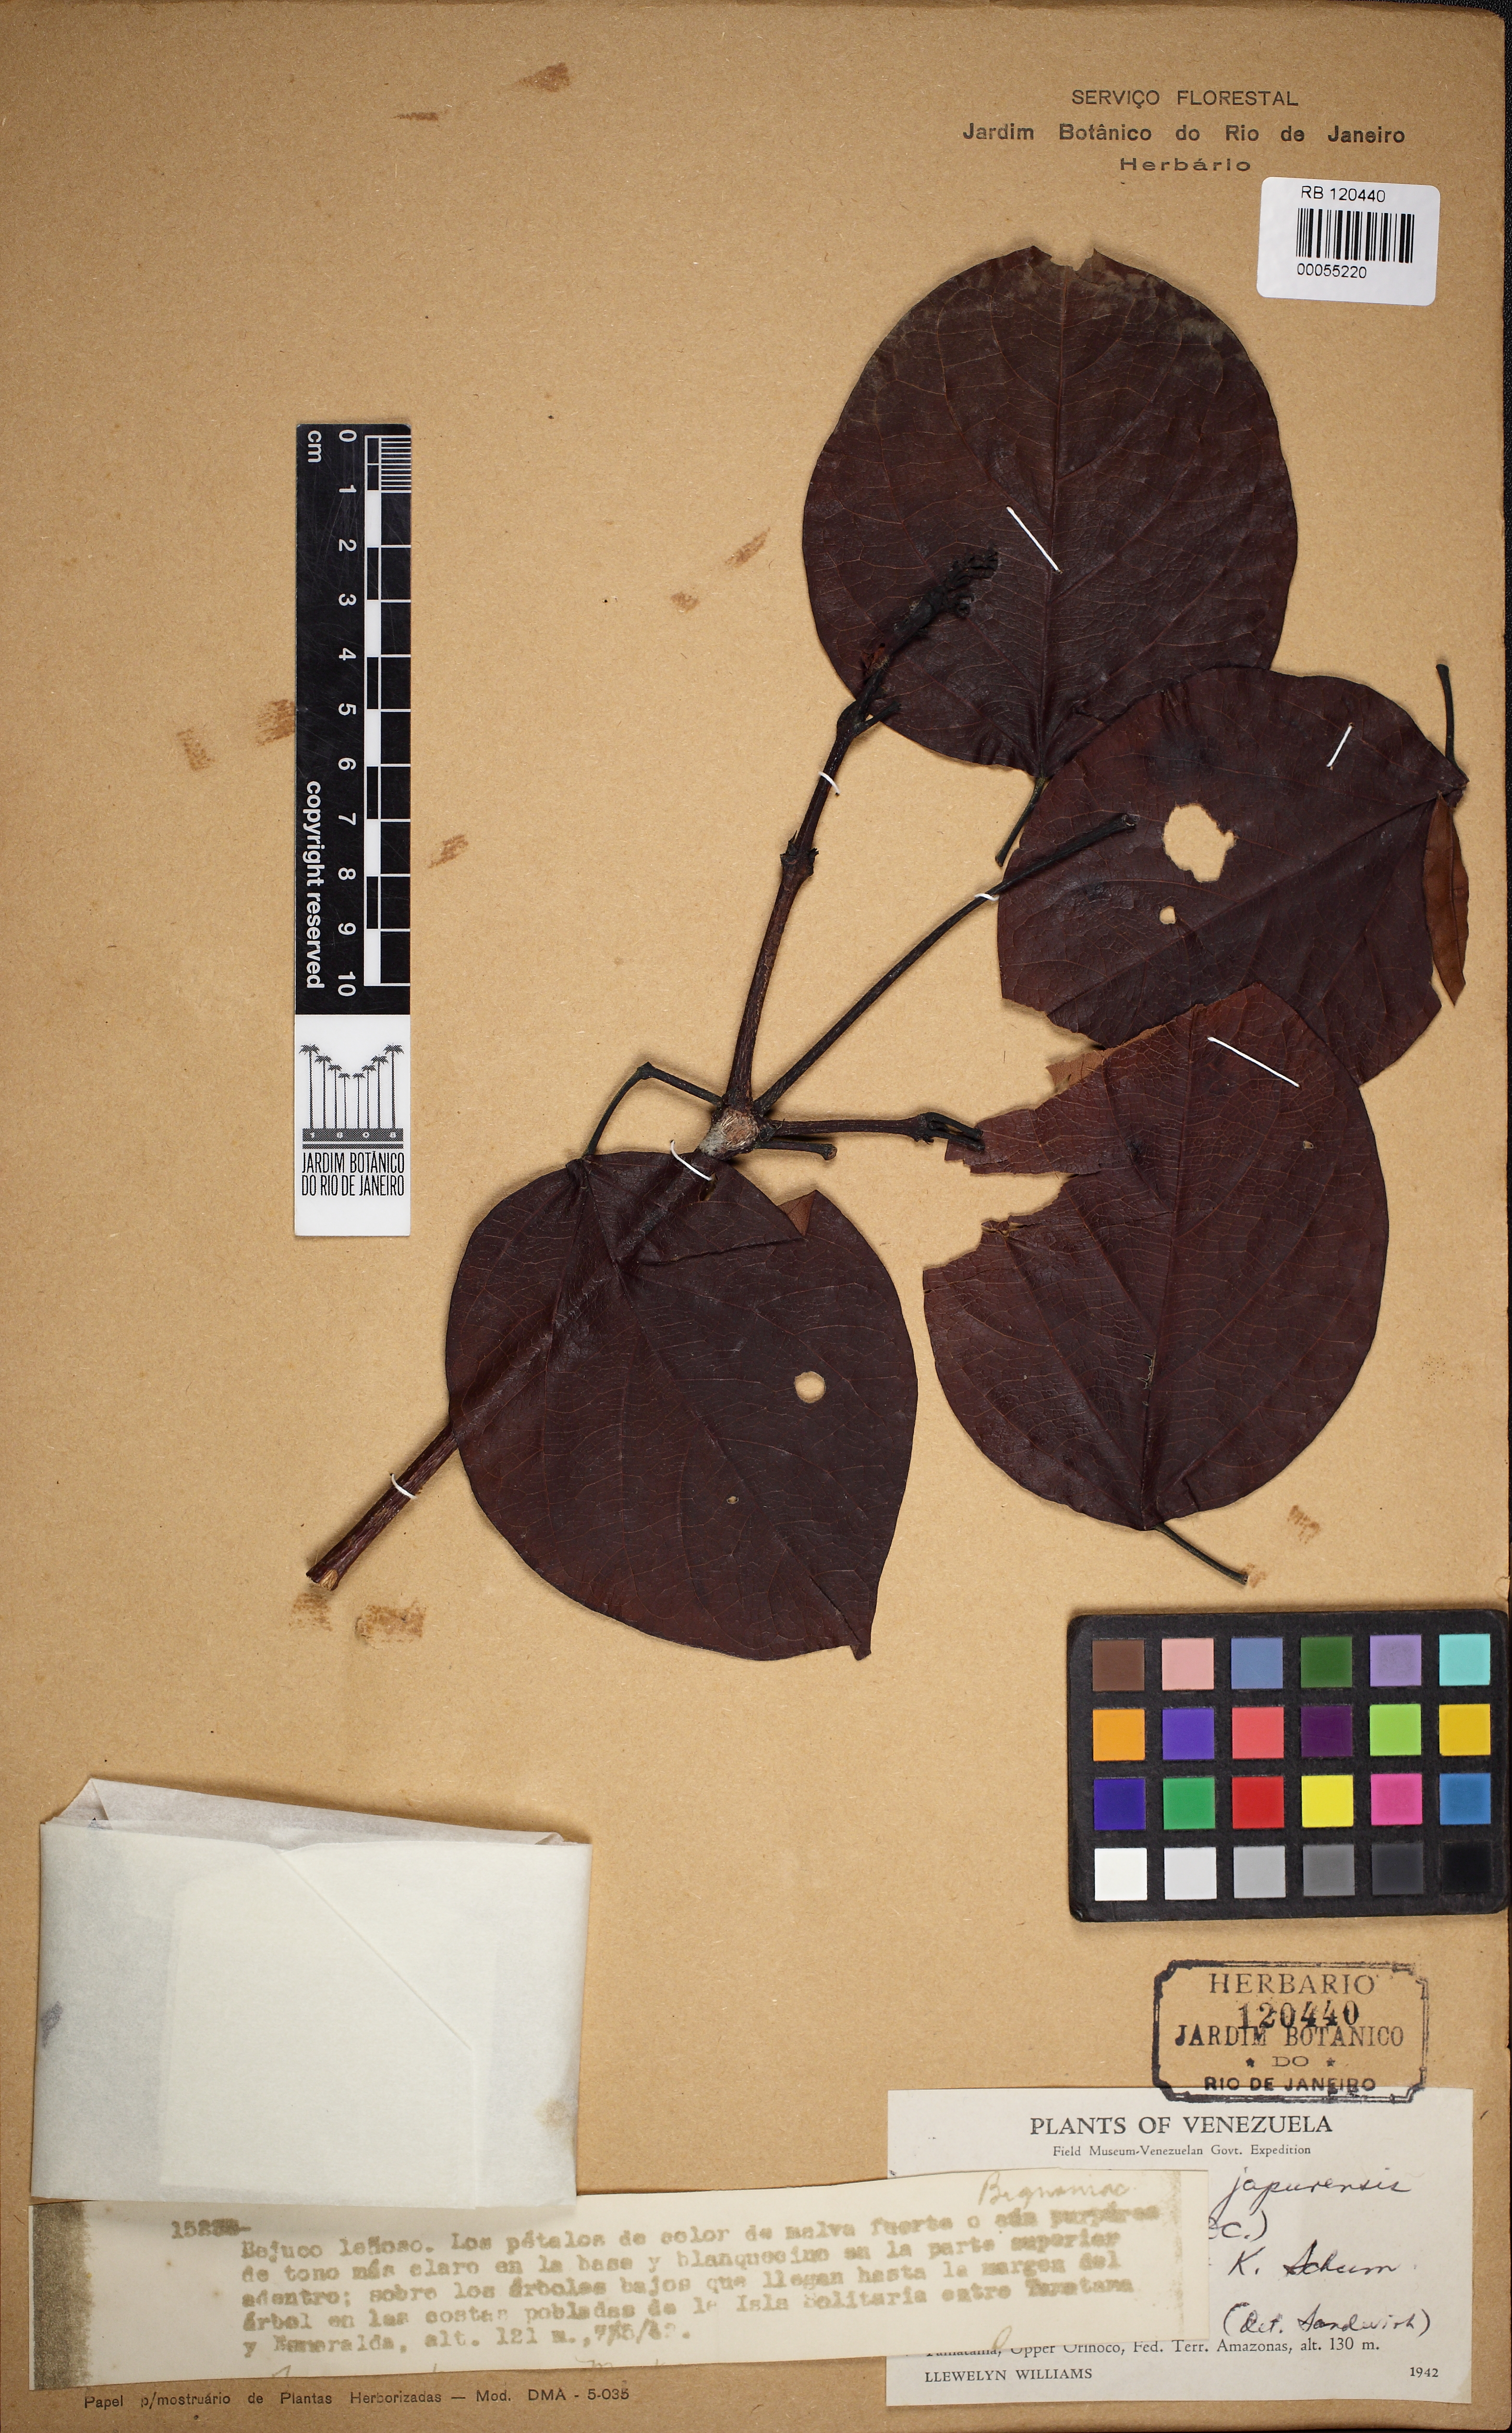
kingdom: Plantae
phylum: Tracheophyta
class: Magnoliopsida
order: Lamiales
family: Bignoniaceae
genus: Fridericia
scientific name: Fridericia japurensis
